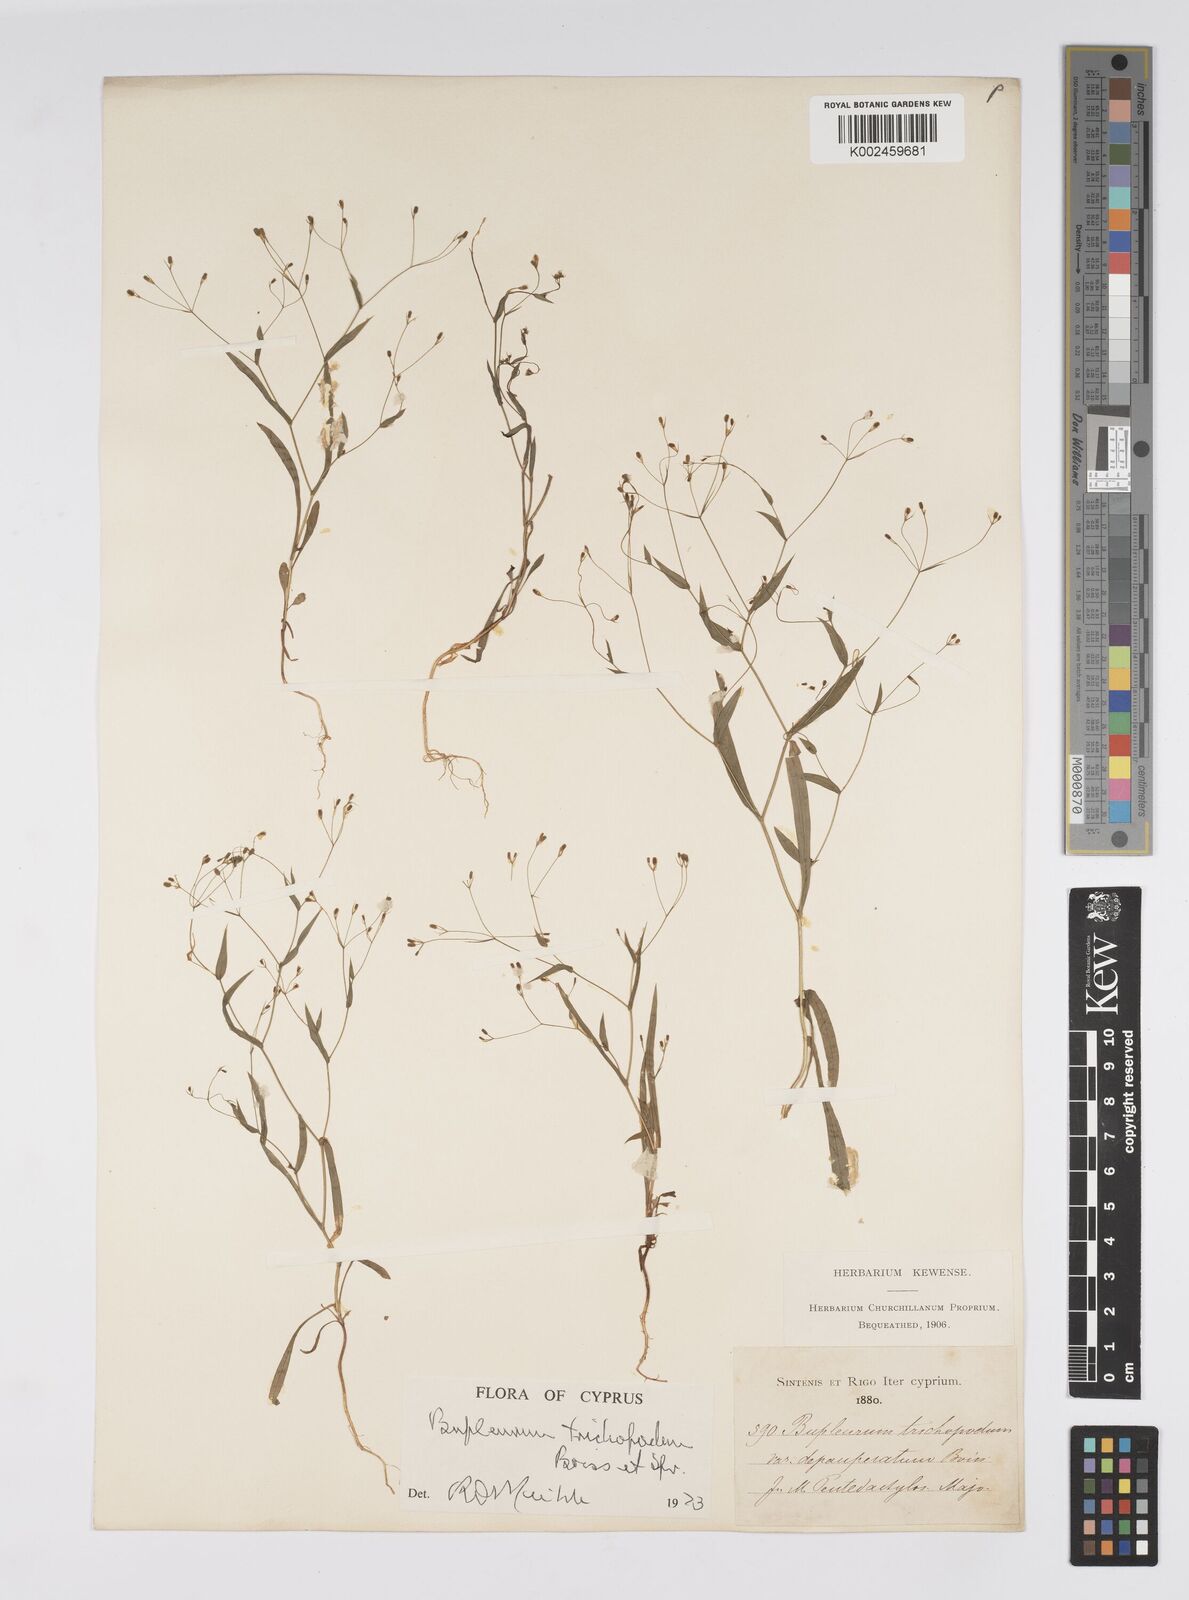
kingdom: Plantae
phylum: Tracheophyta
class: Magnoliopsida
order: Apiales
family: Apiaceae
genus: Bupleurum
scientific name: Bupleurum trichopodum
